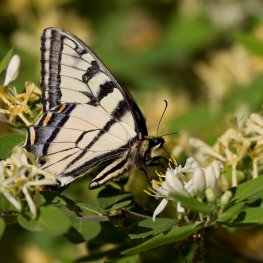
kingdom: Animalia
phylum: Arthropoda
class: Insecta
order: Lepidoptera
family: Papilionidae
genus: Pterourus
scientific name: Pterourus canadensis
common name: Canadian Tiger Swallowtail
